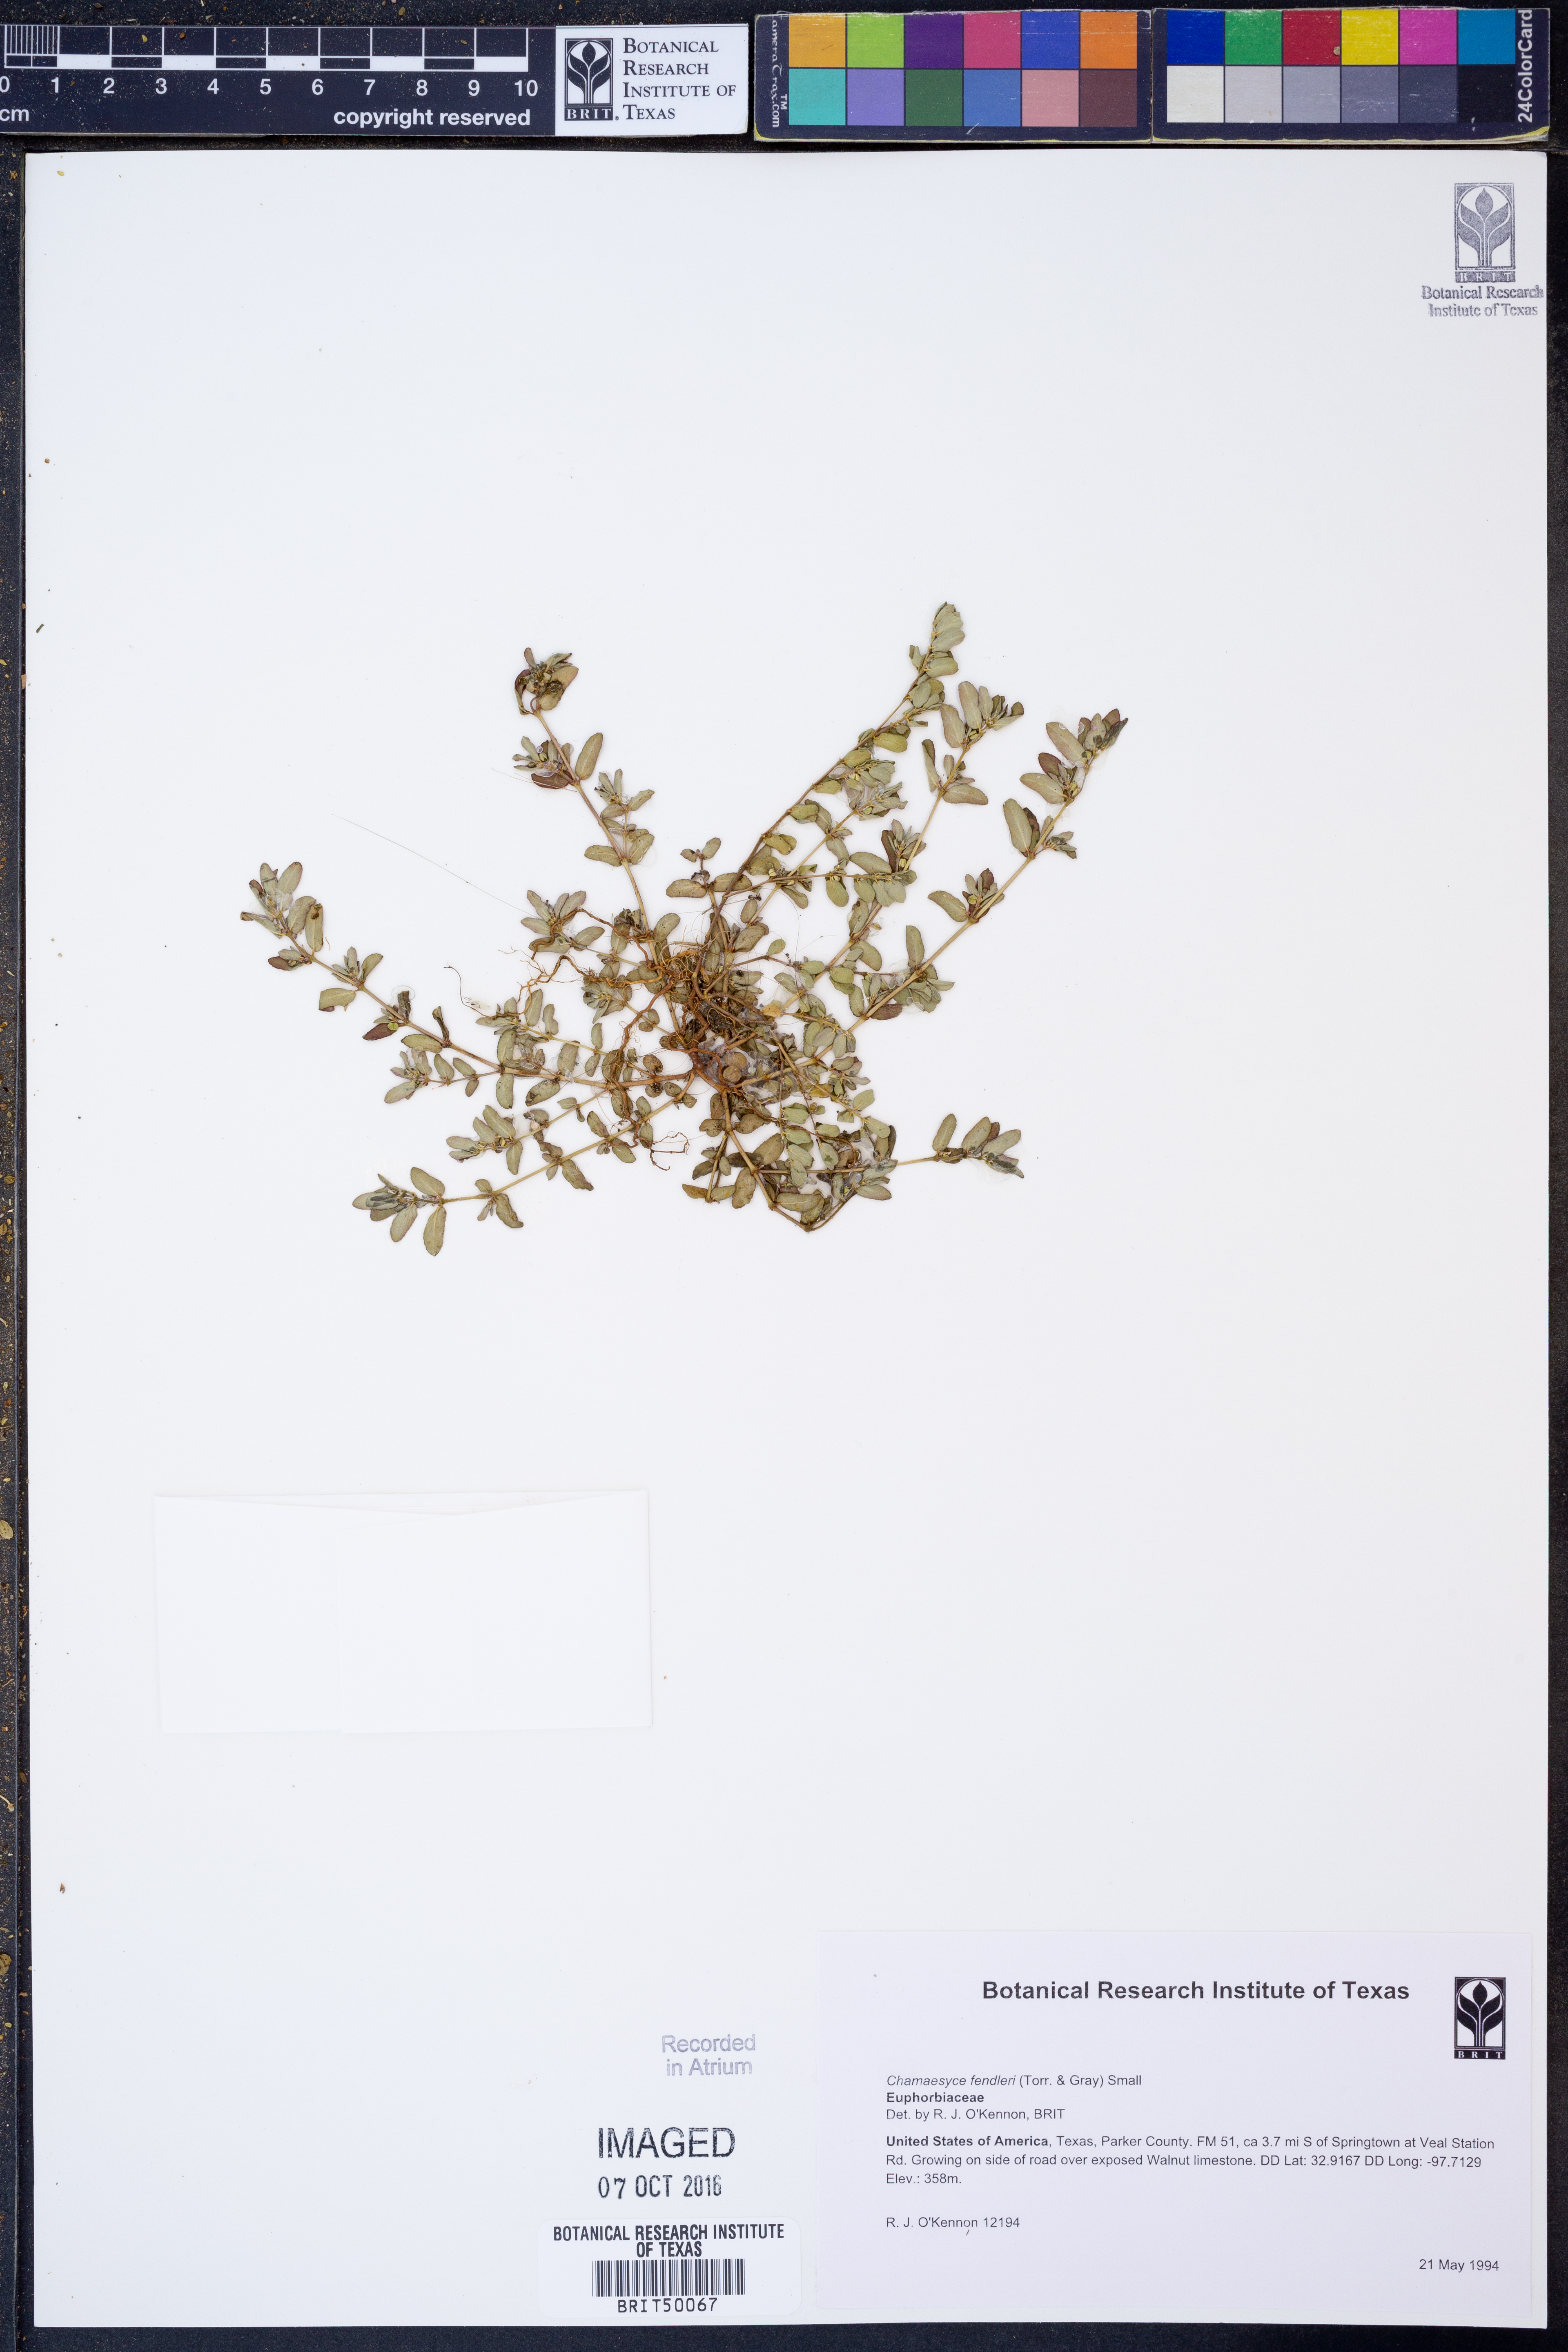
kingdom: Plantae
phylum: Tracheophyta
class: Magnoliopsida
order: Malpighiales
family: Euphorbiaceae
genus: Euphorbia
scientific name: Euphorbia fendleri
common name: Fendler's euphorbia
